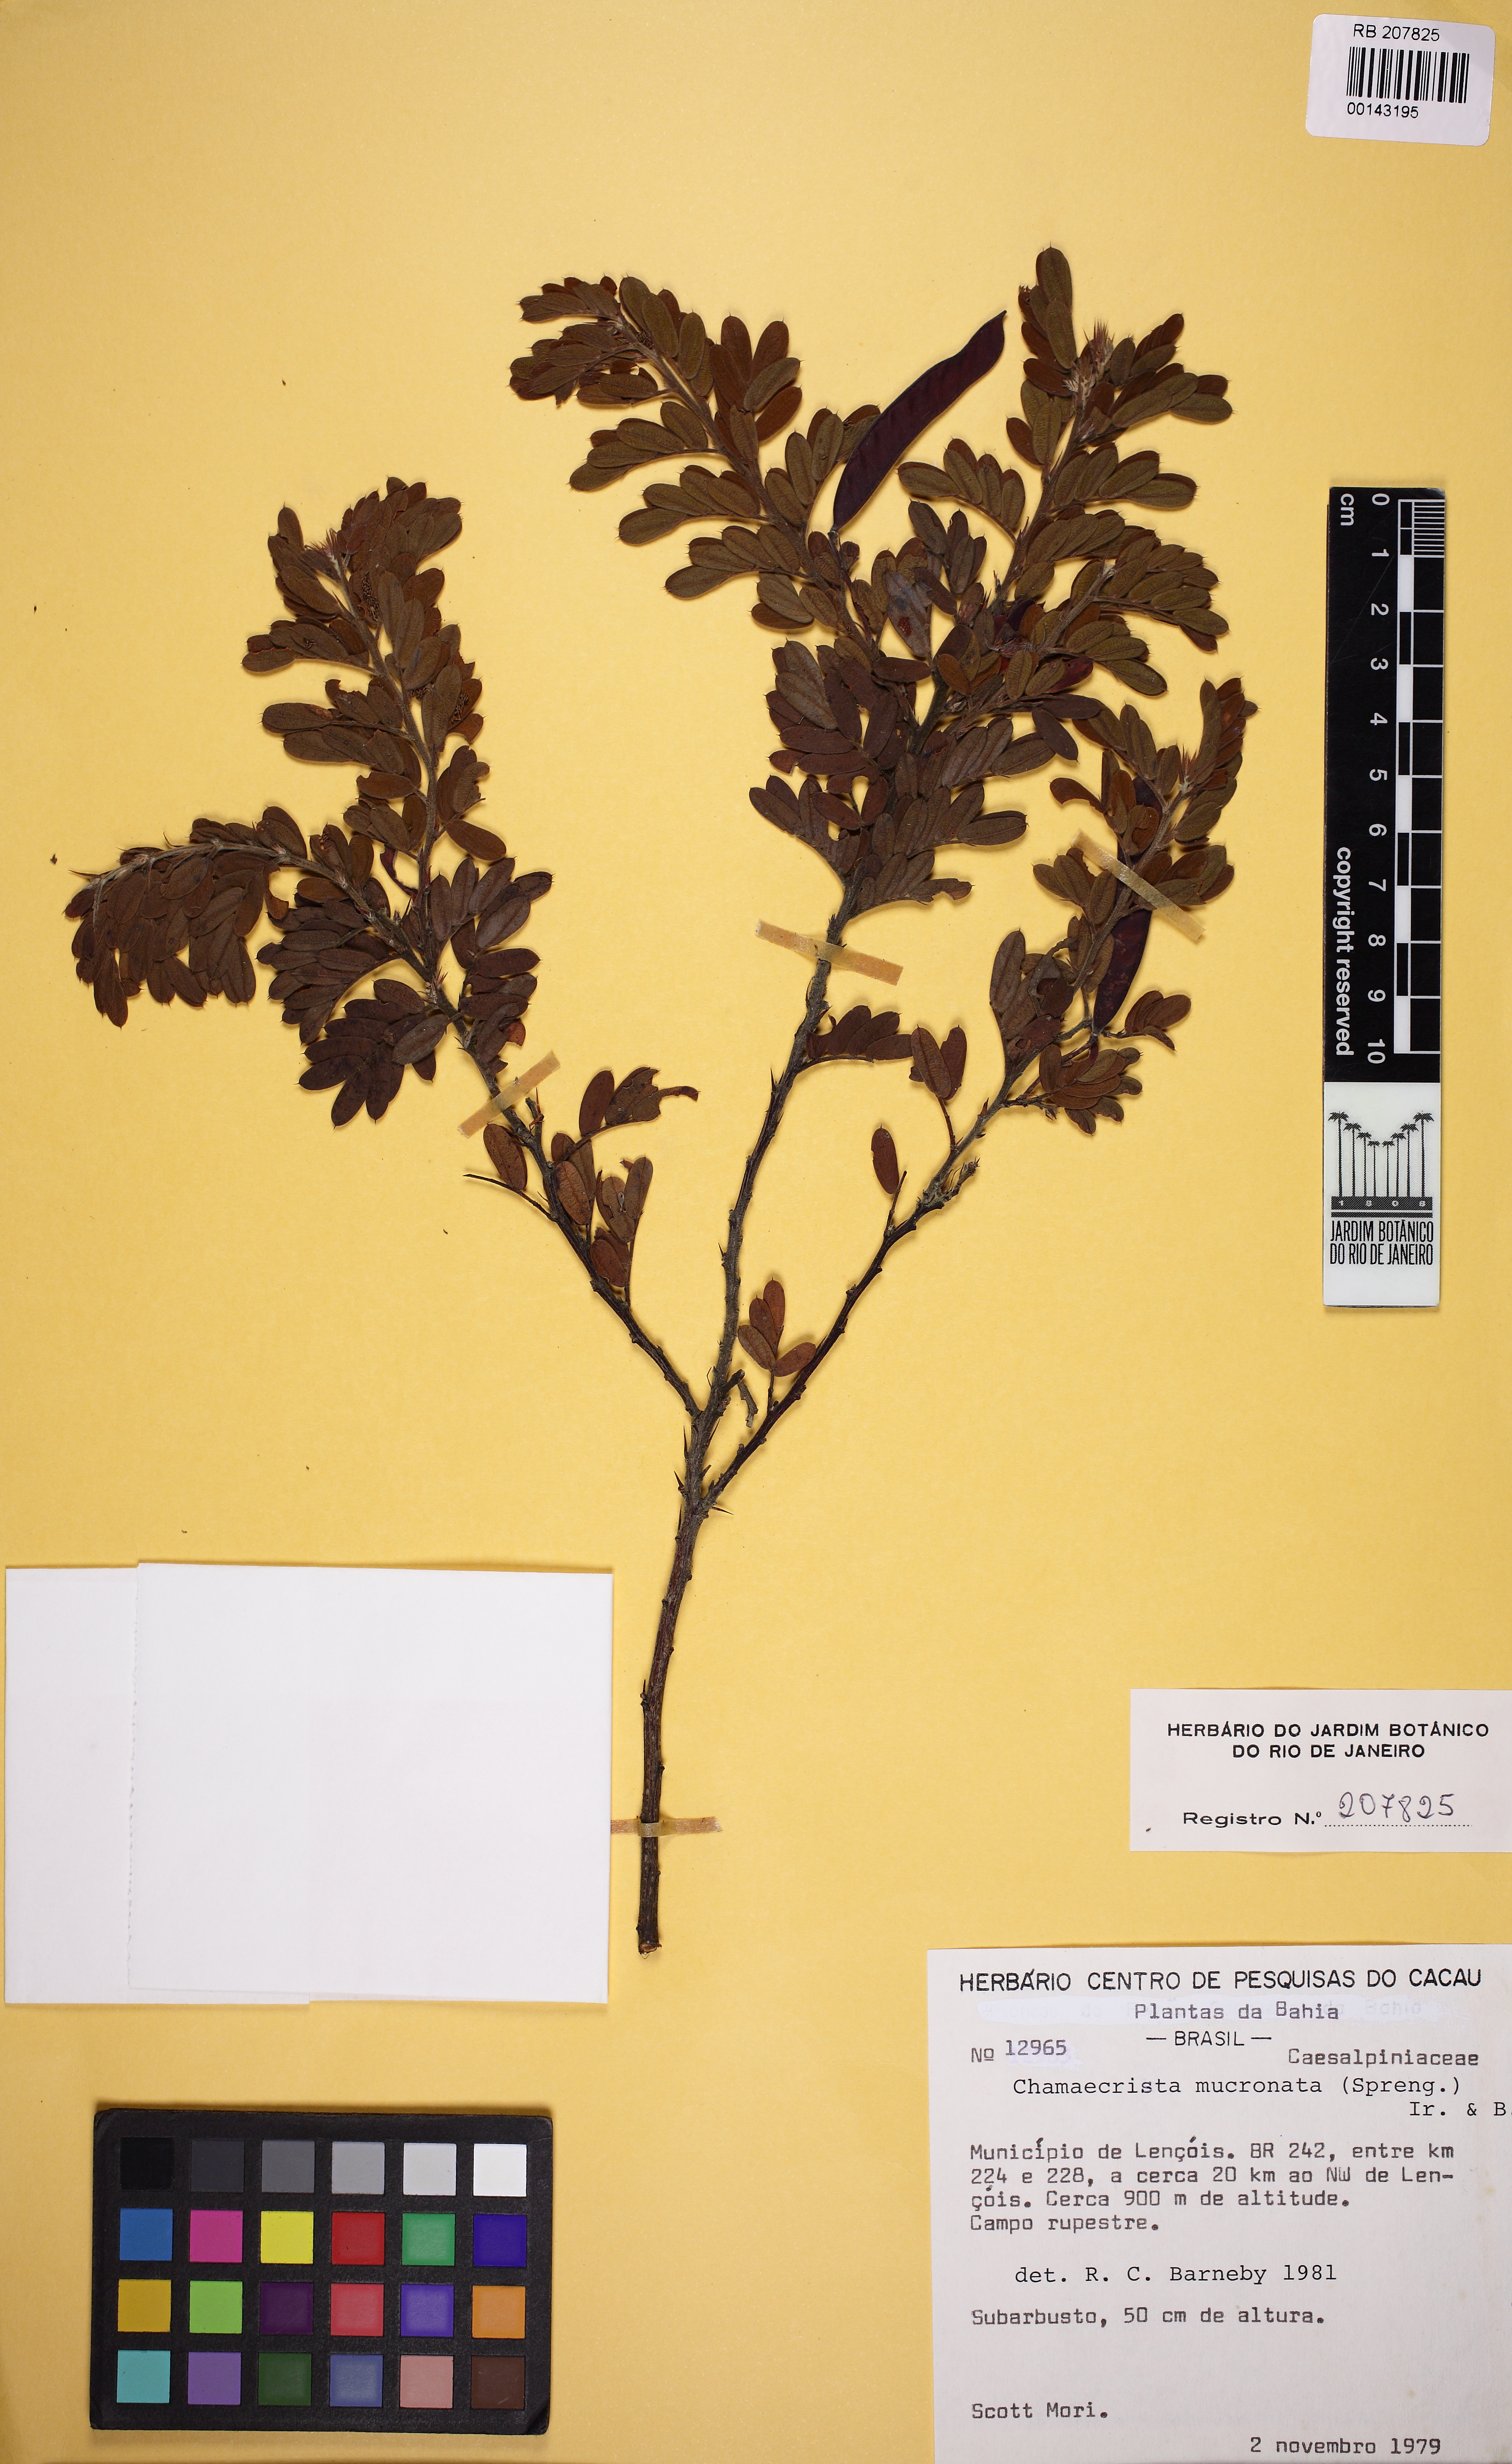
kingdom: Plantae
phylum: Tracheophyta
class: Magnoliopsida
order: Fabales
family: Fabaceae
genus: Chamaecrista
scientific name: Chamaecrista
